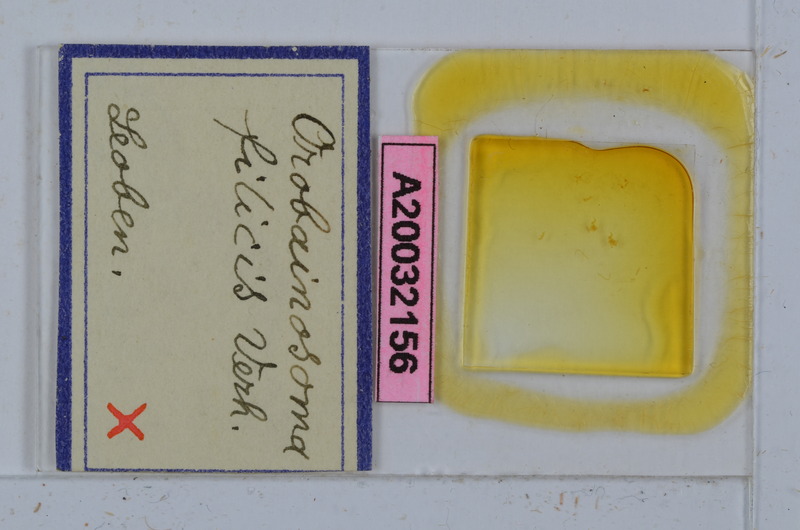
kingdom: Animalia
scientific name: Animalia
